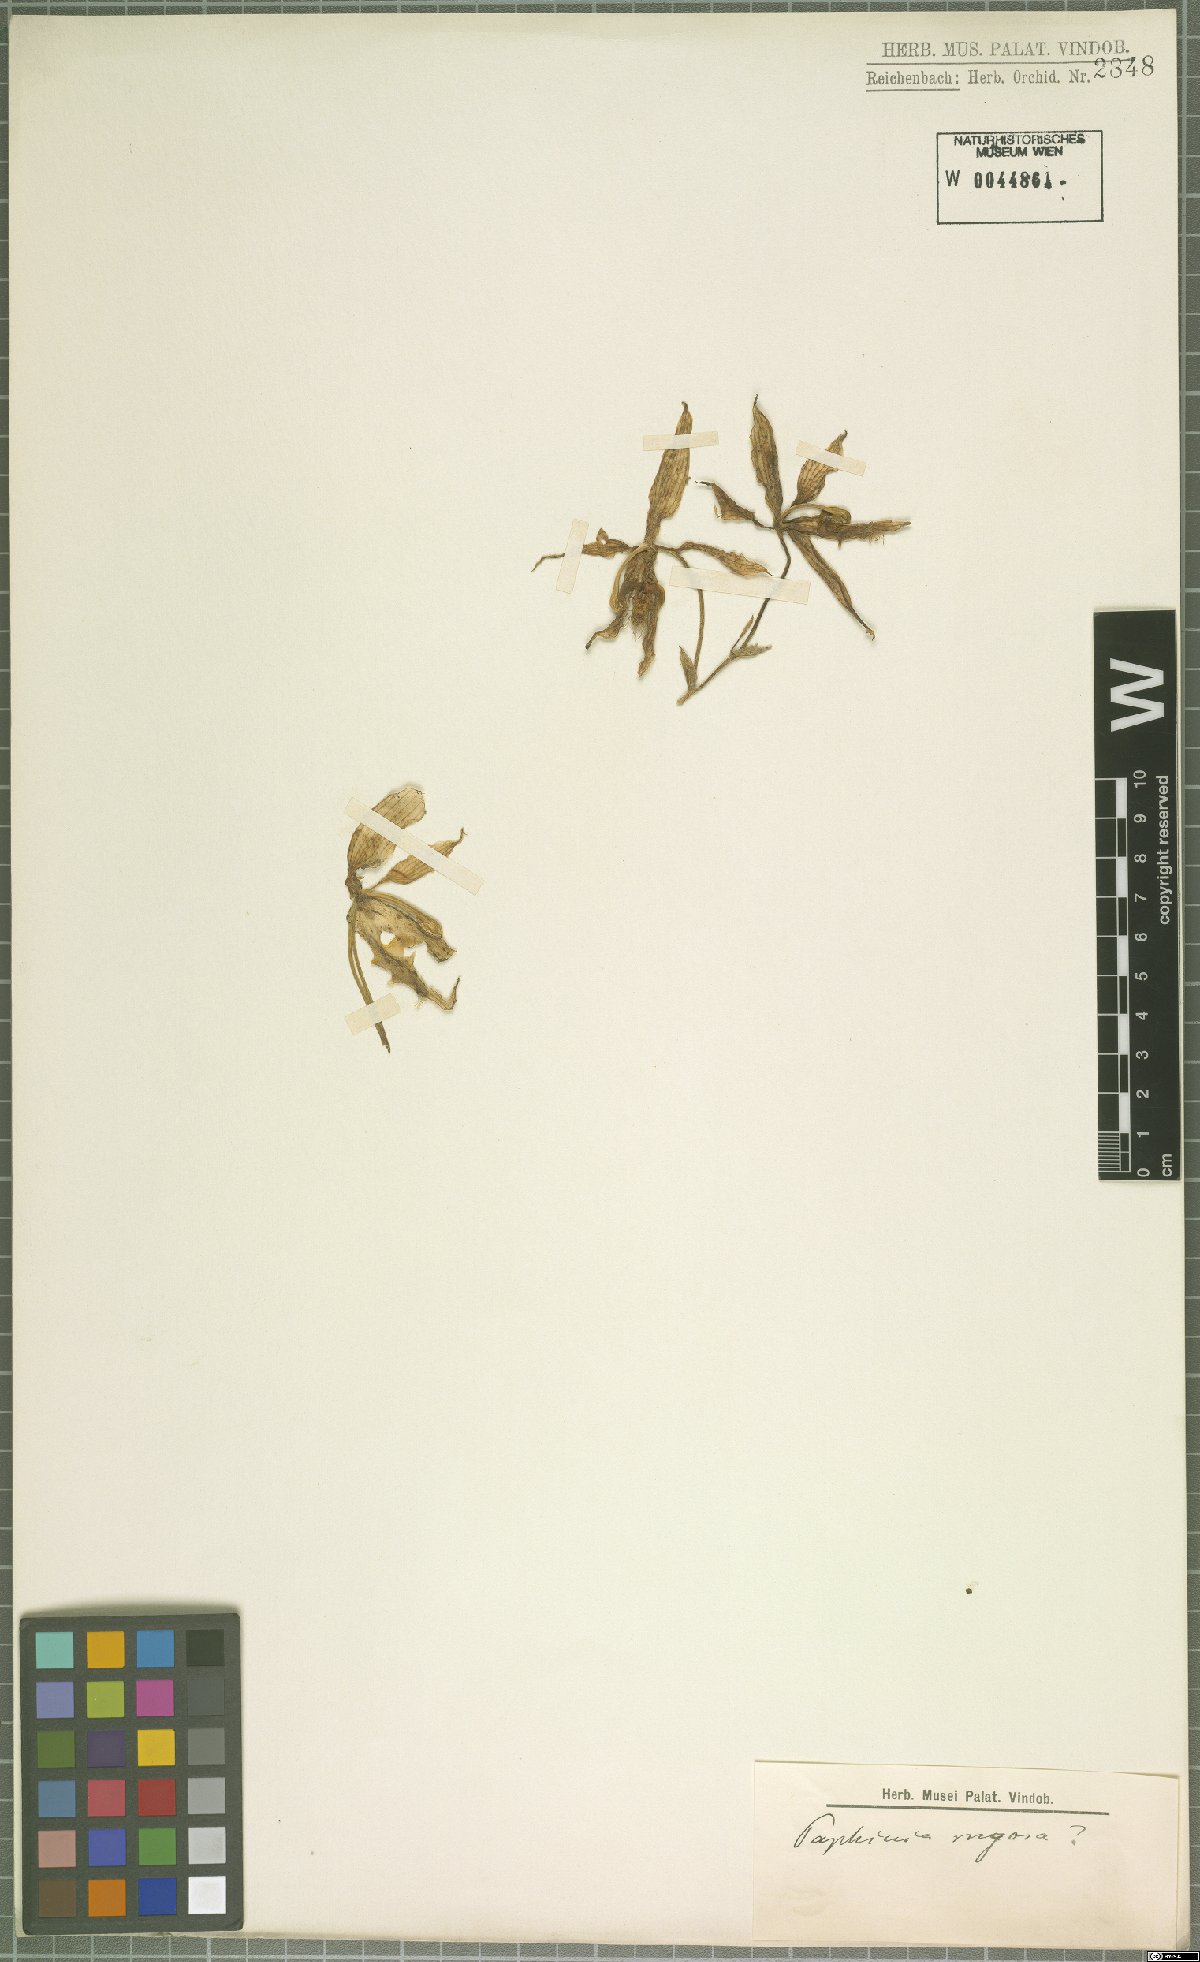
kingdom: Plantae
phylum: Tracheophyta
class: Liliopsida
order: Asparagales
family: Orchidaceae
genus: Paphinia
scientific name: Paphinia rugosa
